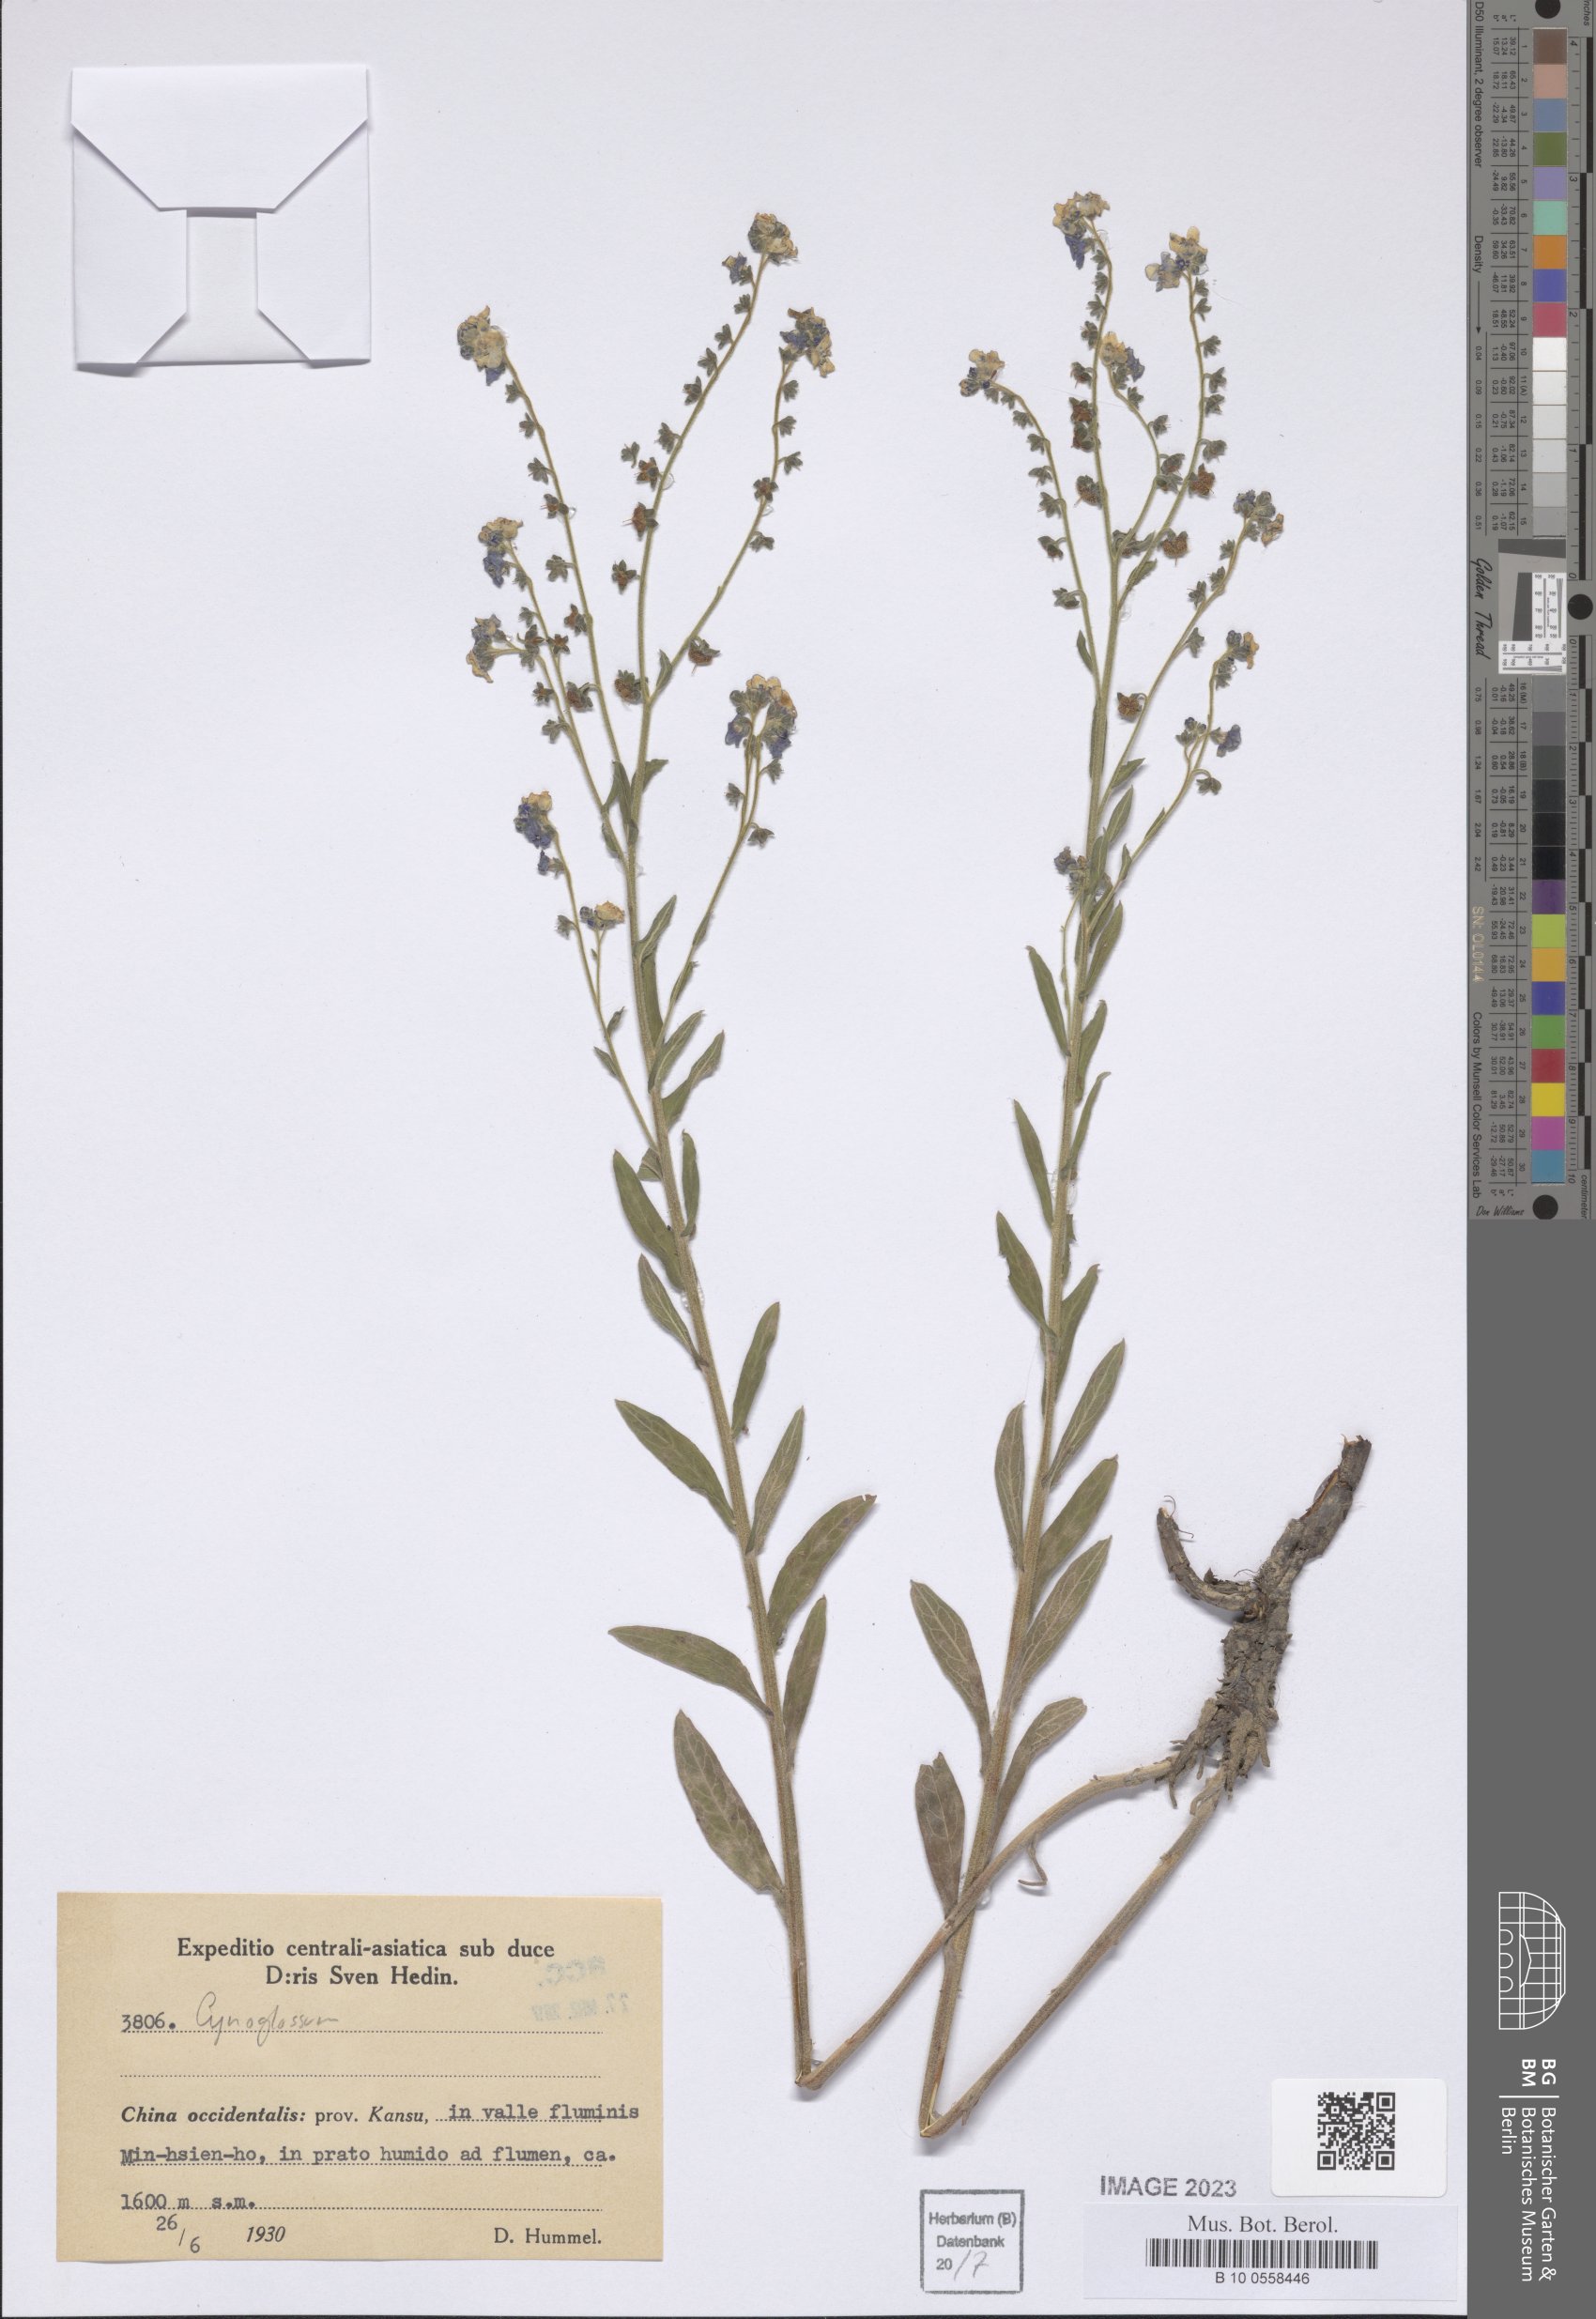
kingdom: Plantae
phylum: Tracheophyta
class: Magnoliopsida
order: Boraginales
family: Boraginaceae
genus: Cynoglossum
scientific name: Cynoglossum
